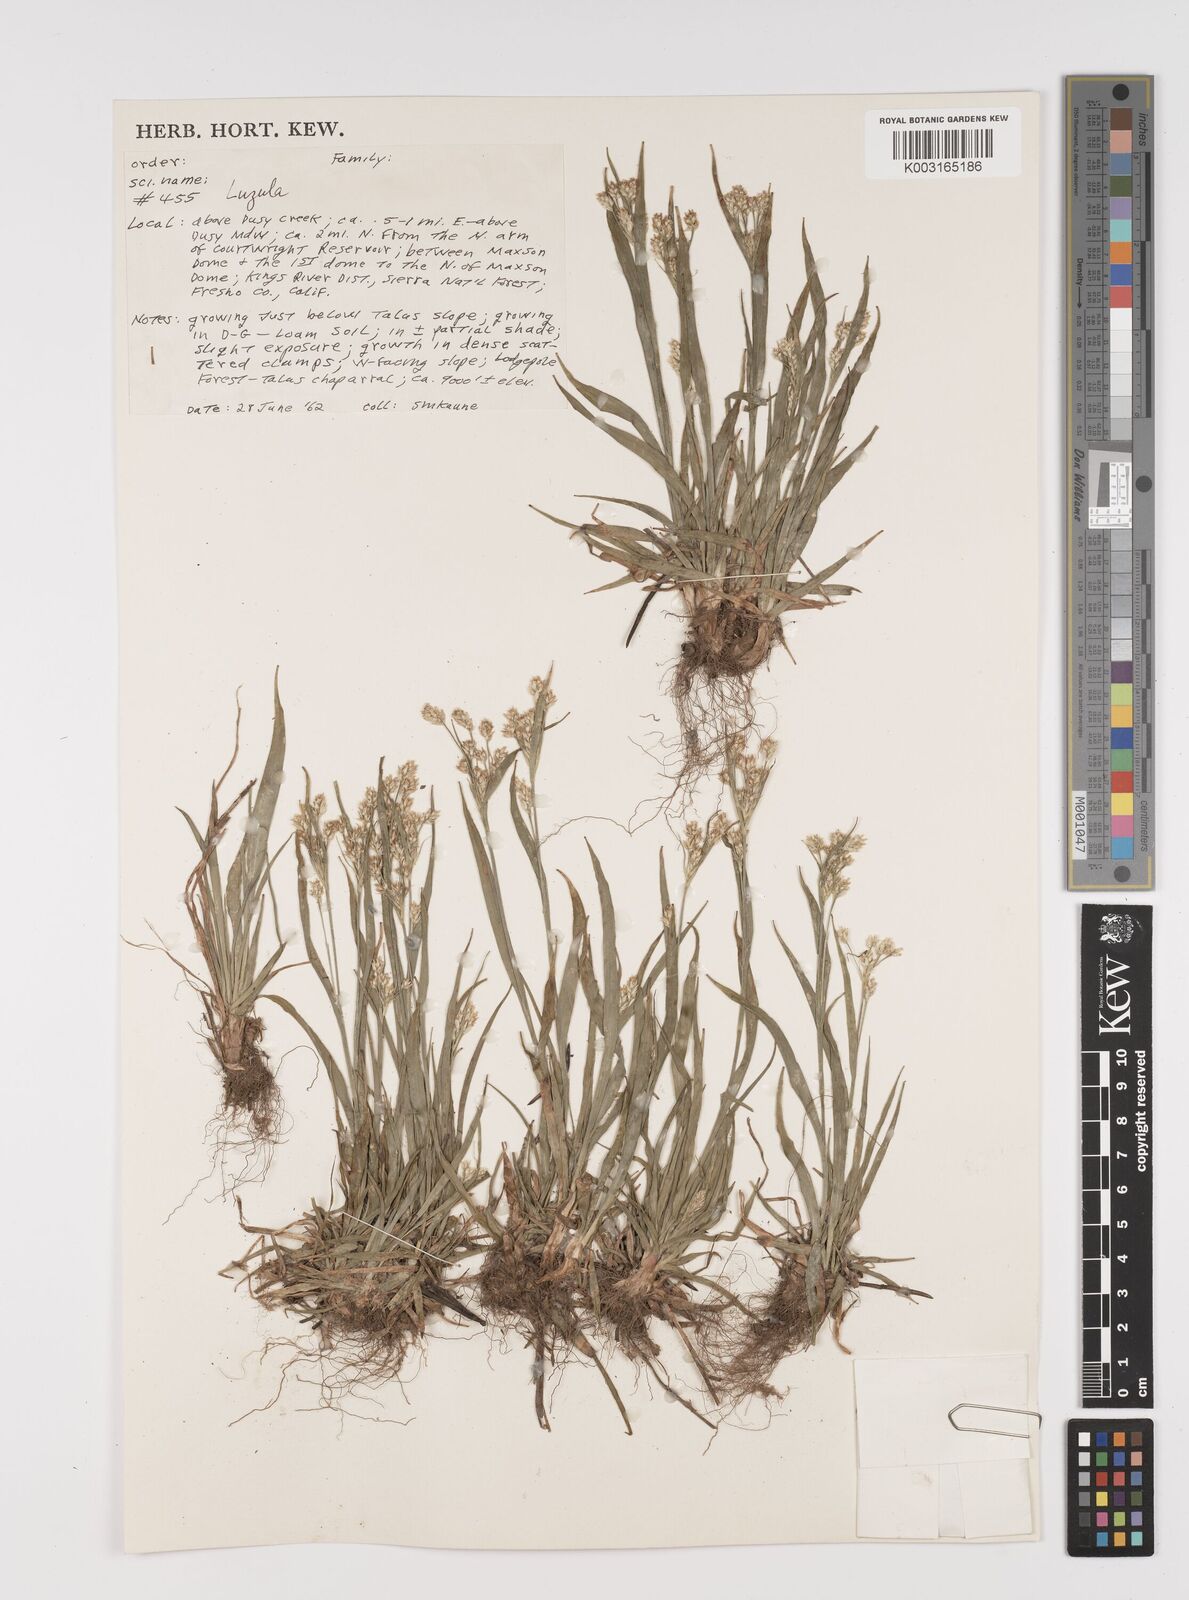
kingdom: Plantae
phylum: Tracheophyta
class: Liliopsida
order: Poales
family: Juncaceae
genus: Luzula
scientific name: Luzula
